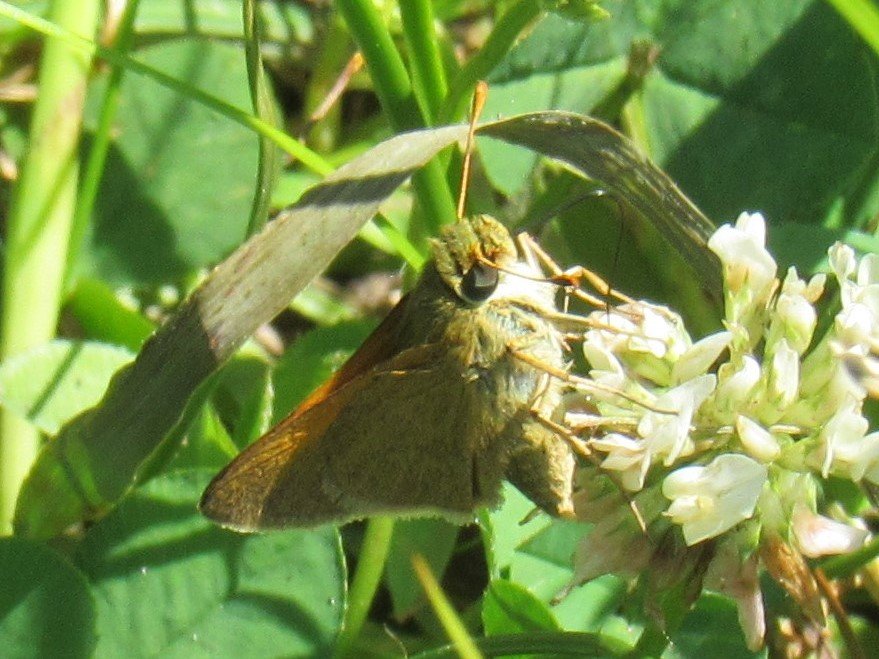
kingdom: Animalia
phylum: Arthropoda
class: Insecta
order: Lepidoptera
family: Hesperiidae
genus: Polites
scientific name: Polites themistocles
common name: Tawny-edged Skipper
